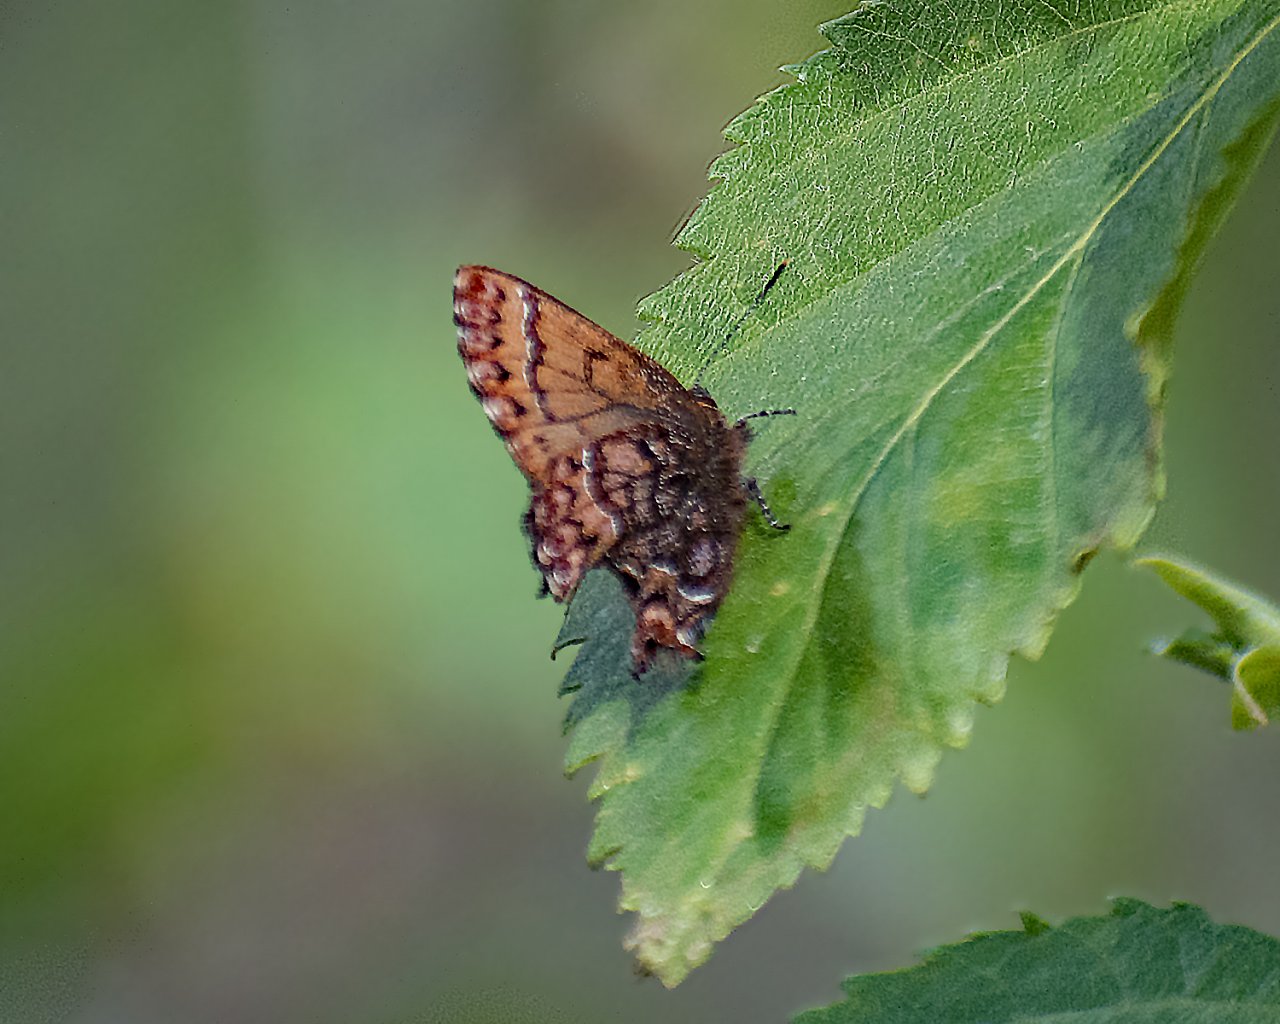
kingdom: Animalia
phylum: Arthropoda
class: Insecta
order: Lepidoptera
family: Lycaenidae
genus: Incisalia
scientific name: Incisalia eryphon
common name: Western Pine Elfin
